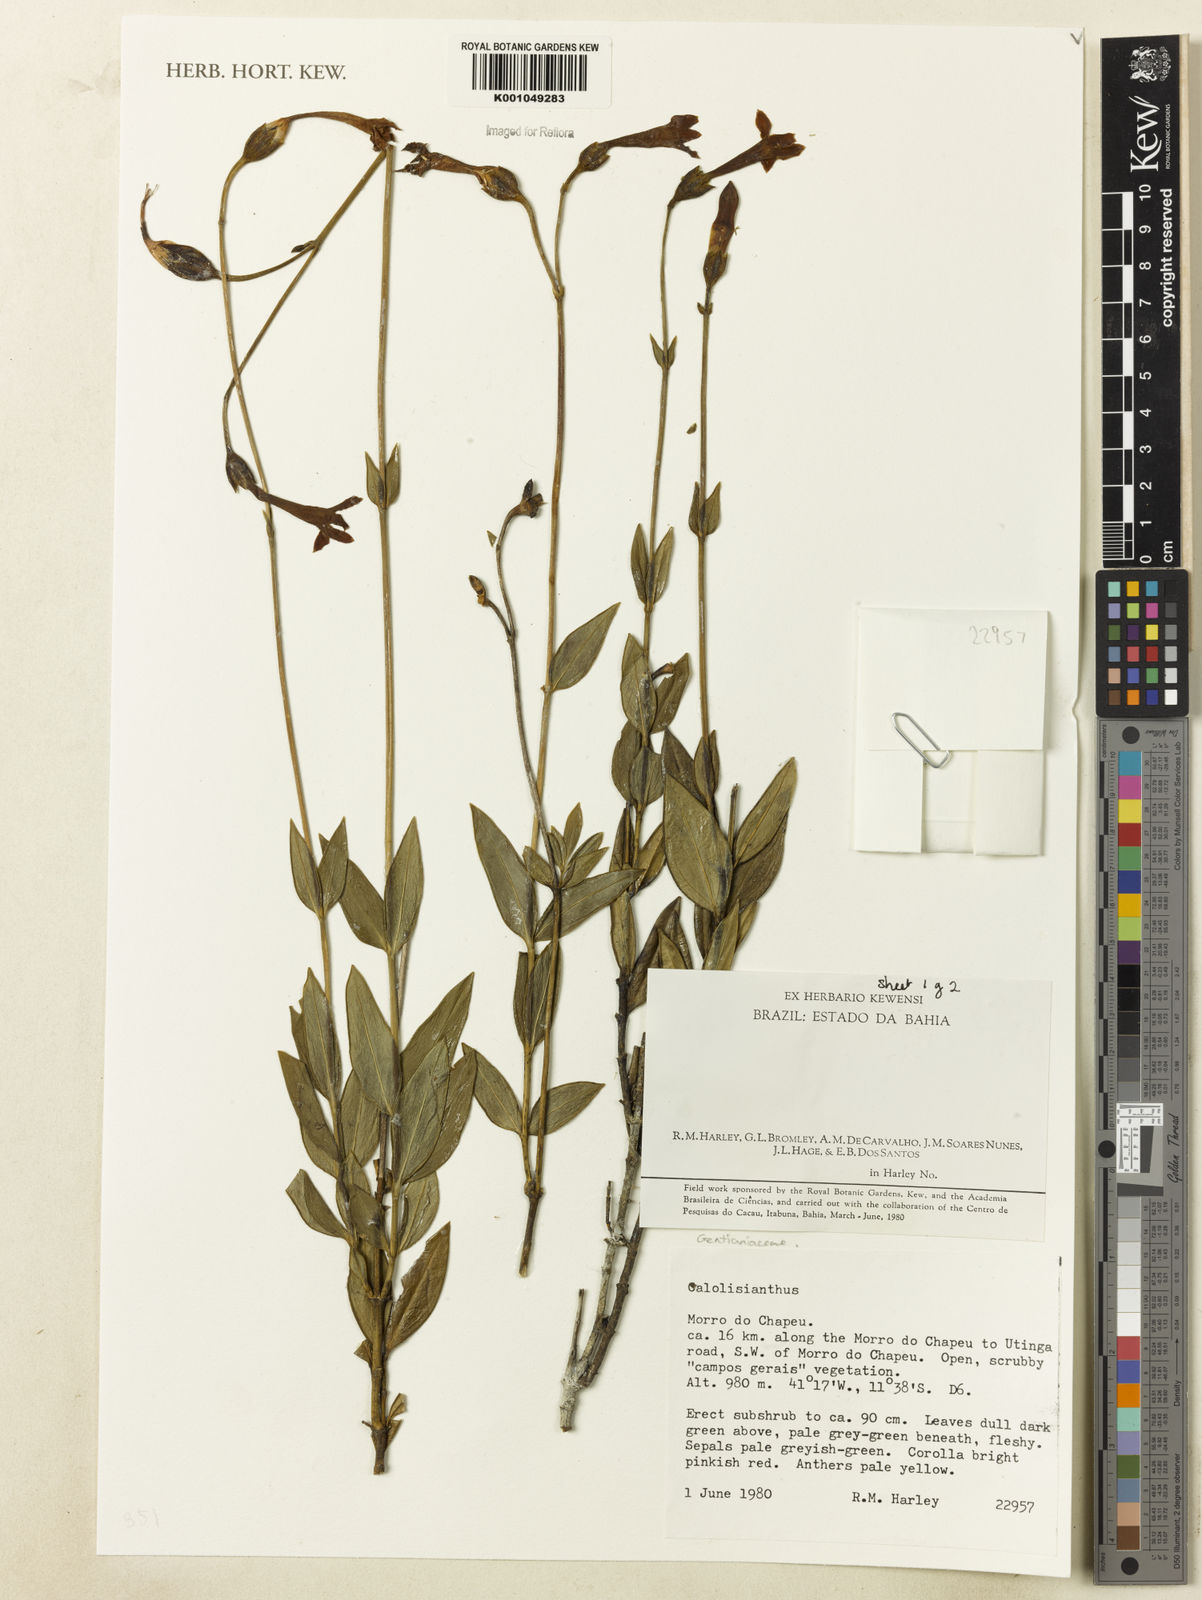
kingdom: Plantae
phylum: Tracheophyta
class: Magnoliopsida
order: Gentianales
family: Gentianaceae
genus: Calolisianthus
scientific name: Calolisianthus
